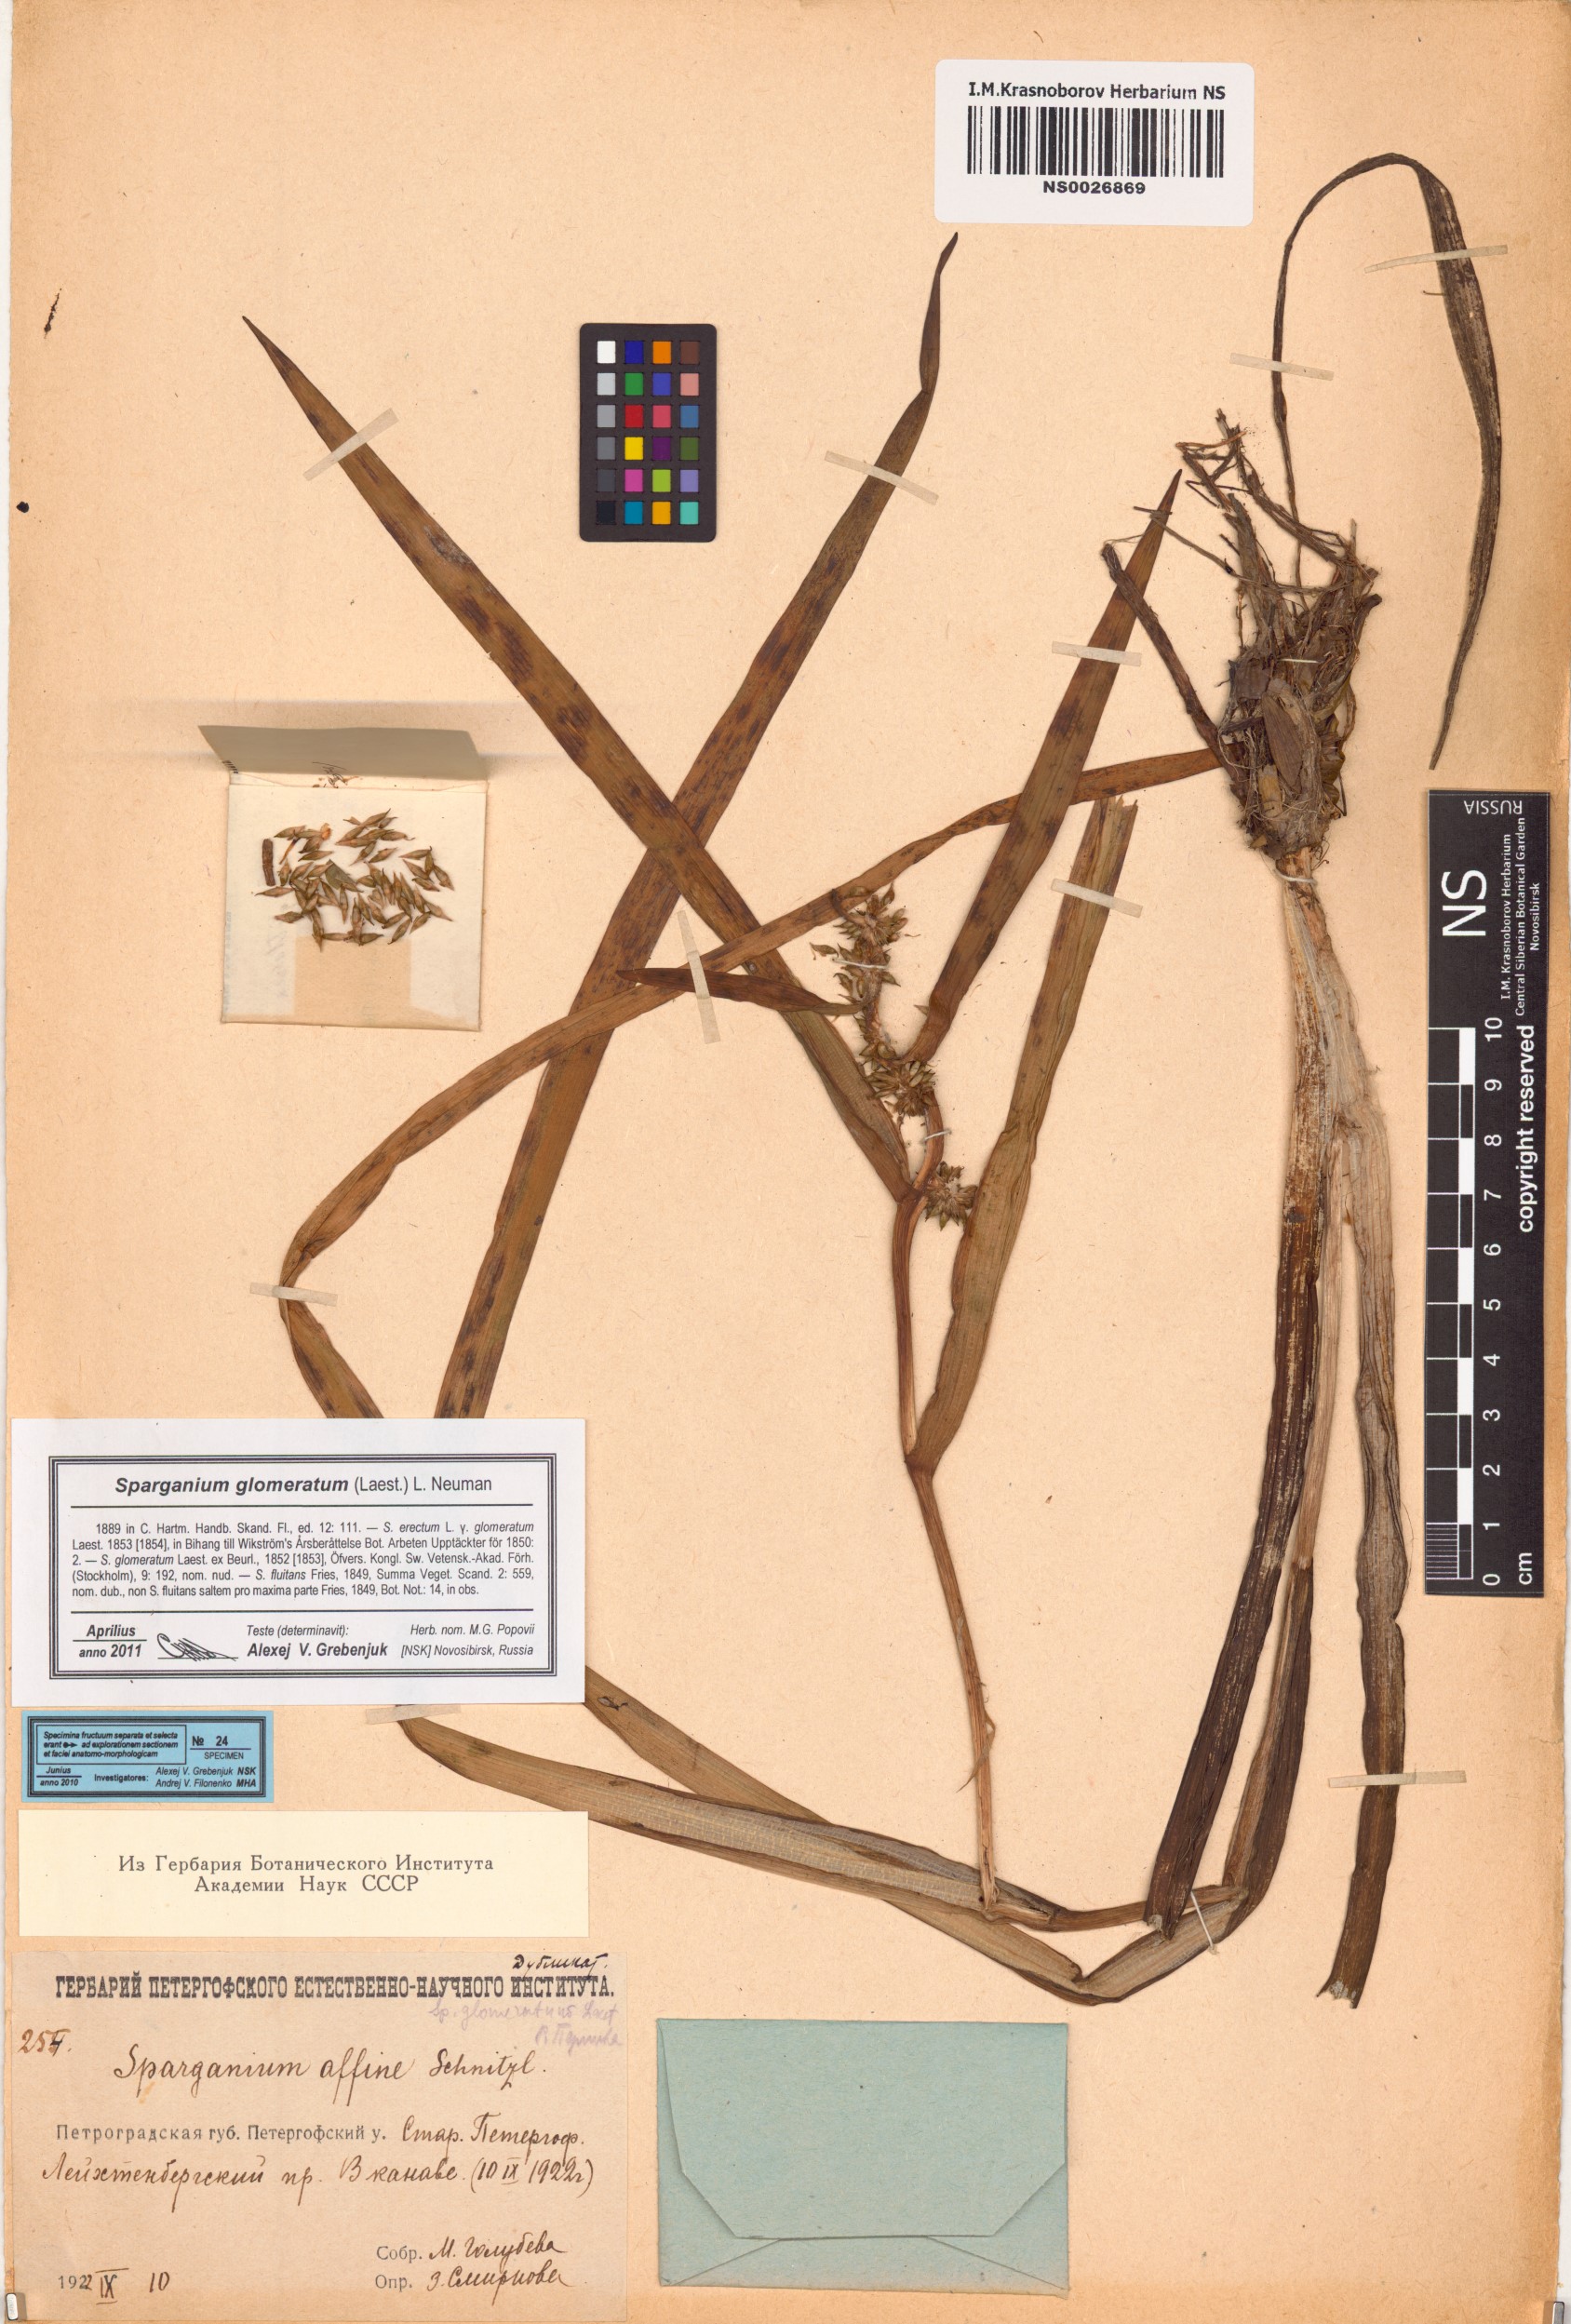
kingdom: Plantae
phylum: Tracheophyta
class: Liliopsida
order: Poales
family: Typhaceae
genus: Sparganium
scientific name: Sparganium glomeratum
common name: Clustered burreed
